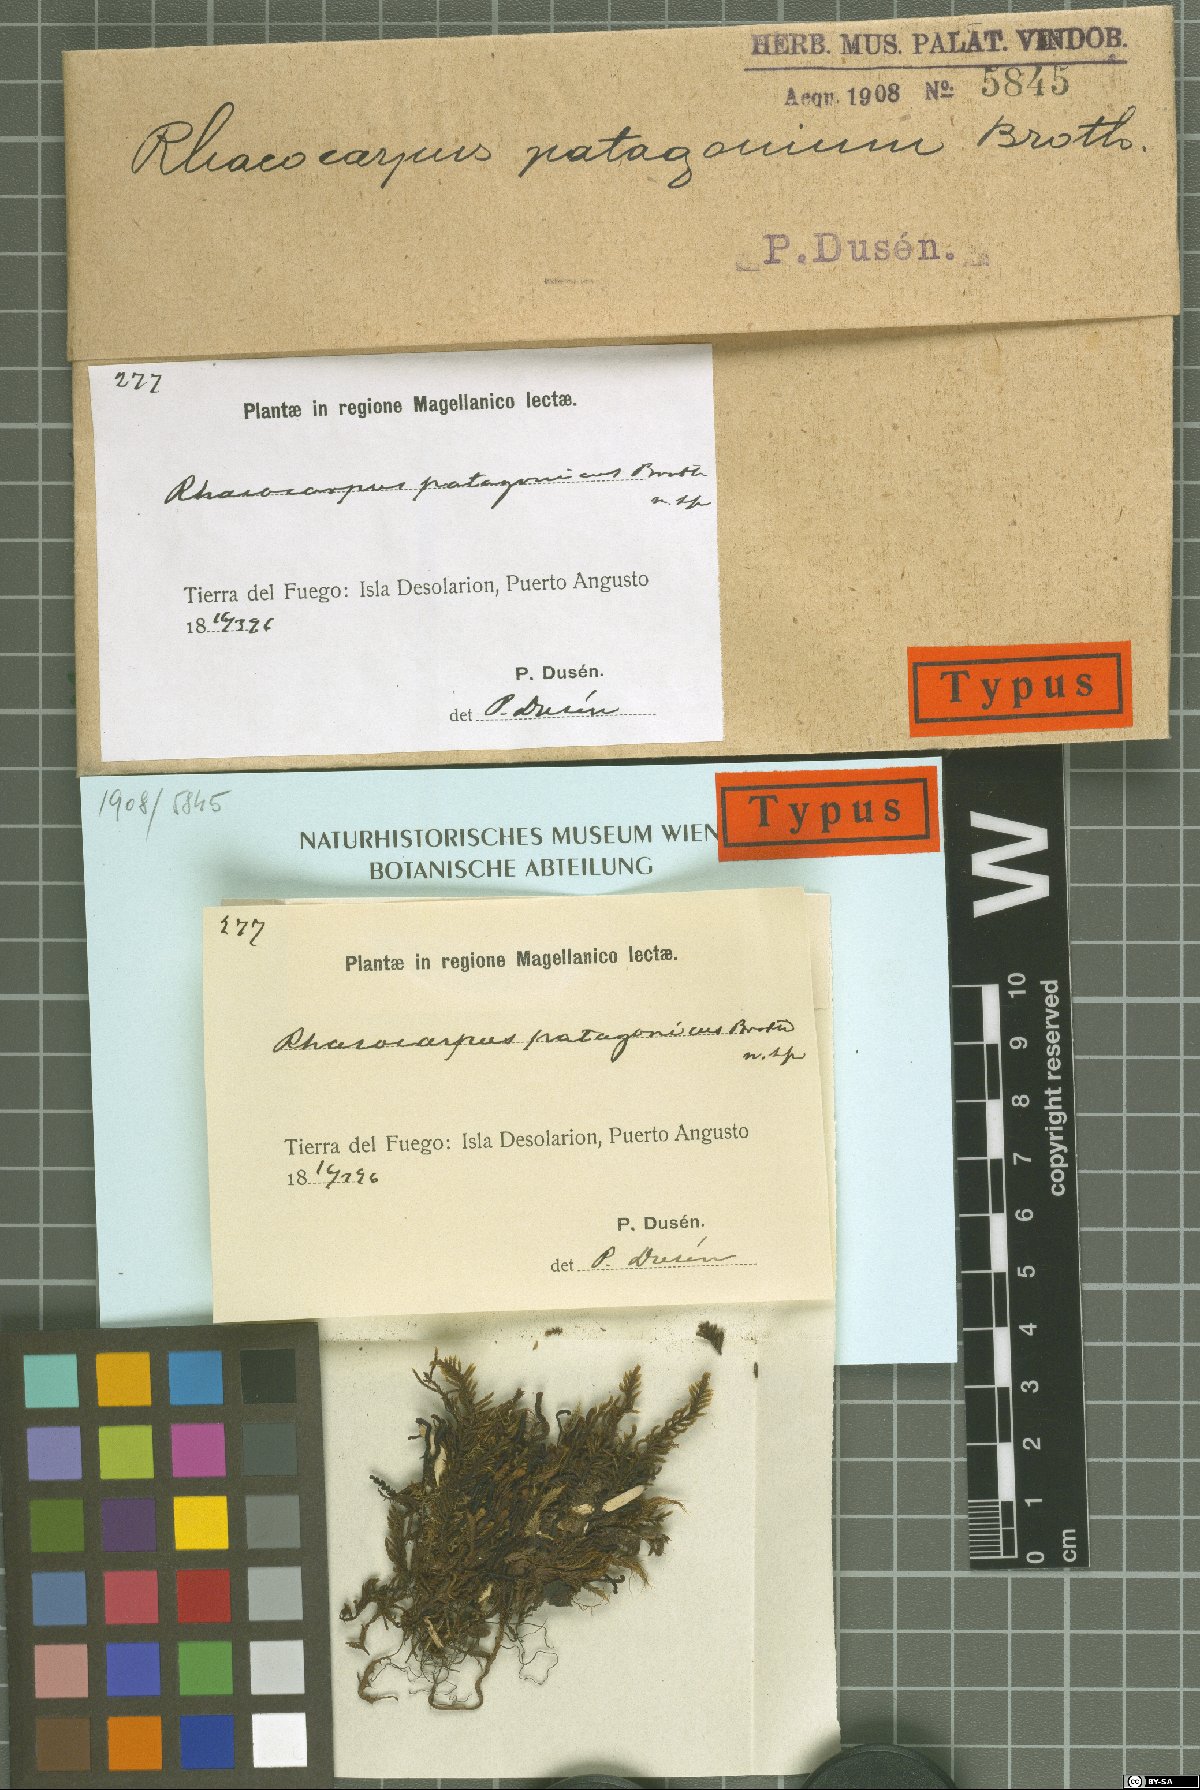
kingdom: Plantae
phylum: Bryophyta
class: Bryopsida
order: Hedwigiales
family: Hedwigiaceae
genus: Pararhacocarpus
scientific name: Pararhacocarpus patagonicus
